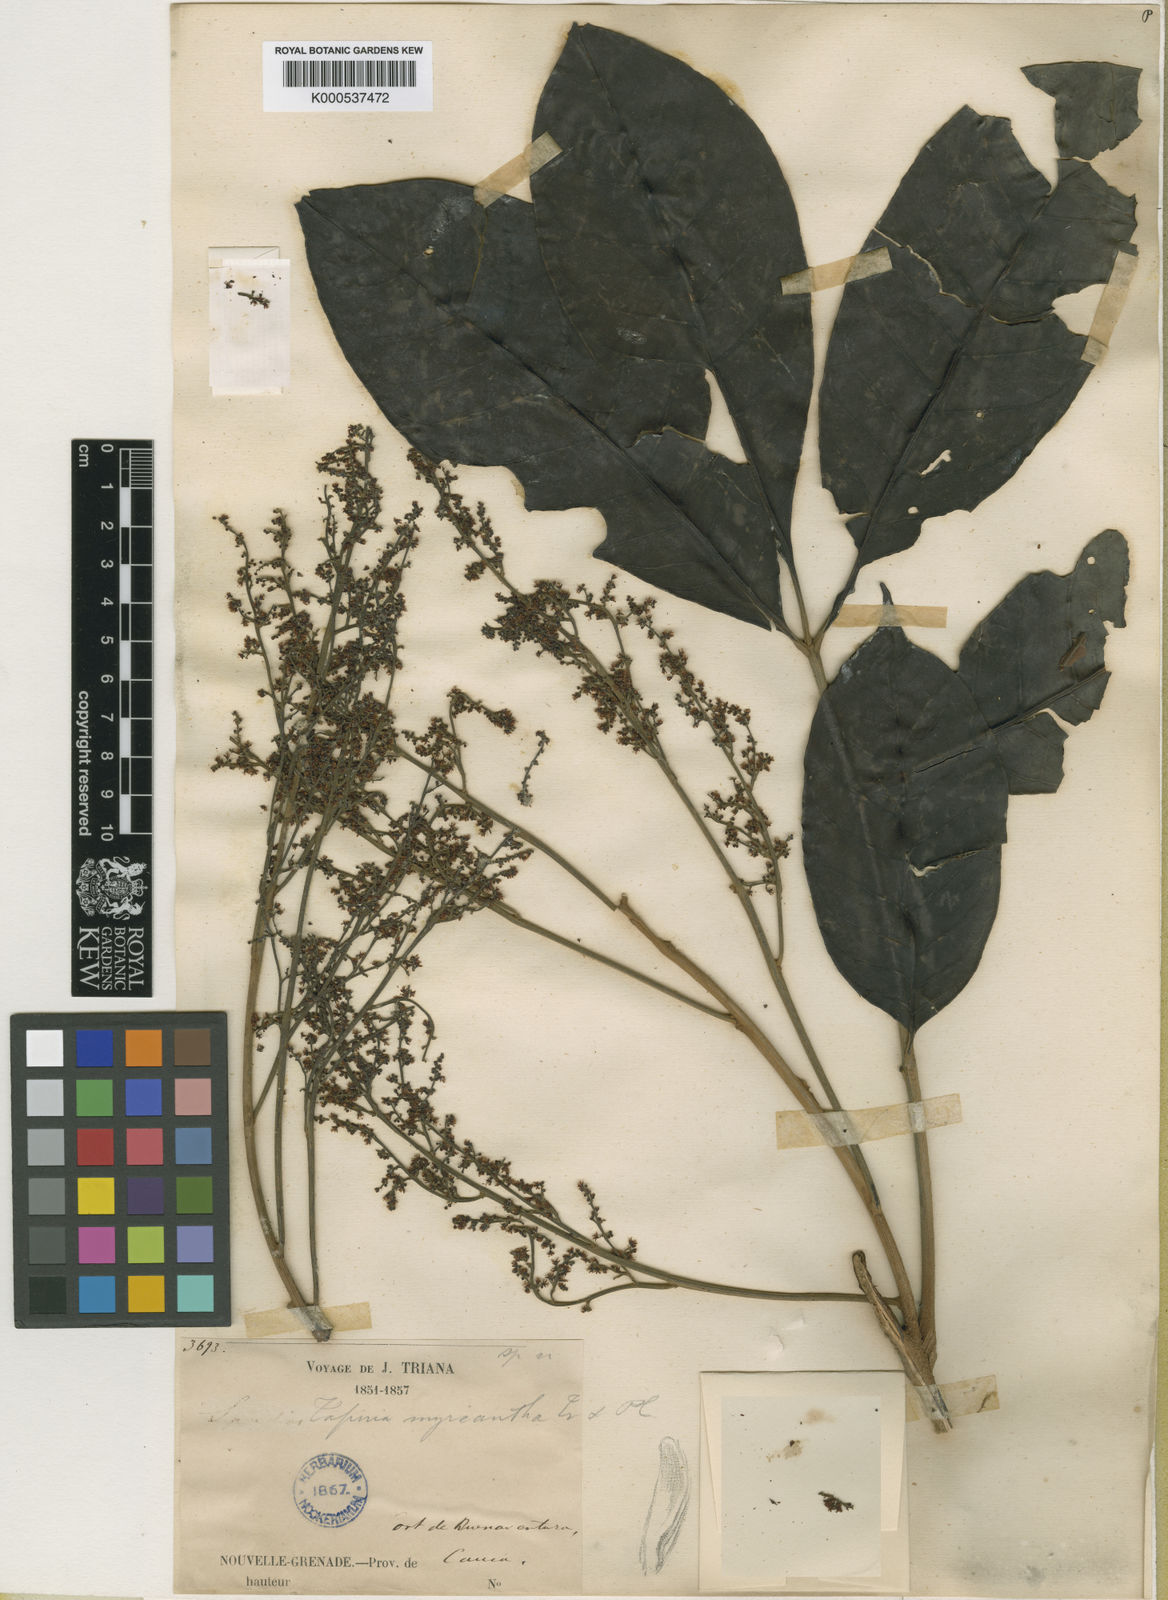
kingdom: Plantae
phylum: Tracheophyta
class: Magnoliopsida
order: Sapindales
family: Anacardiaceae
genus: Tapirira
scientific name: Tapirira guianensis
